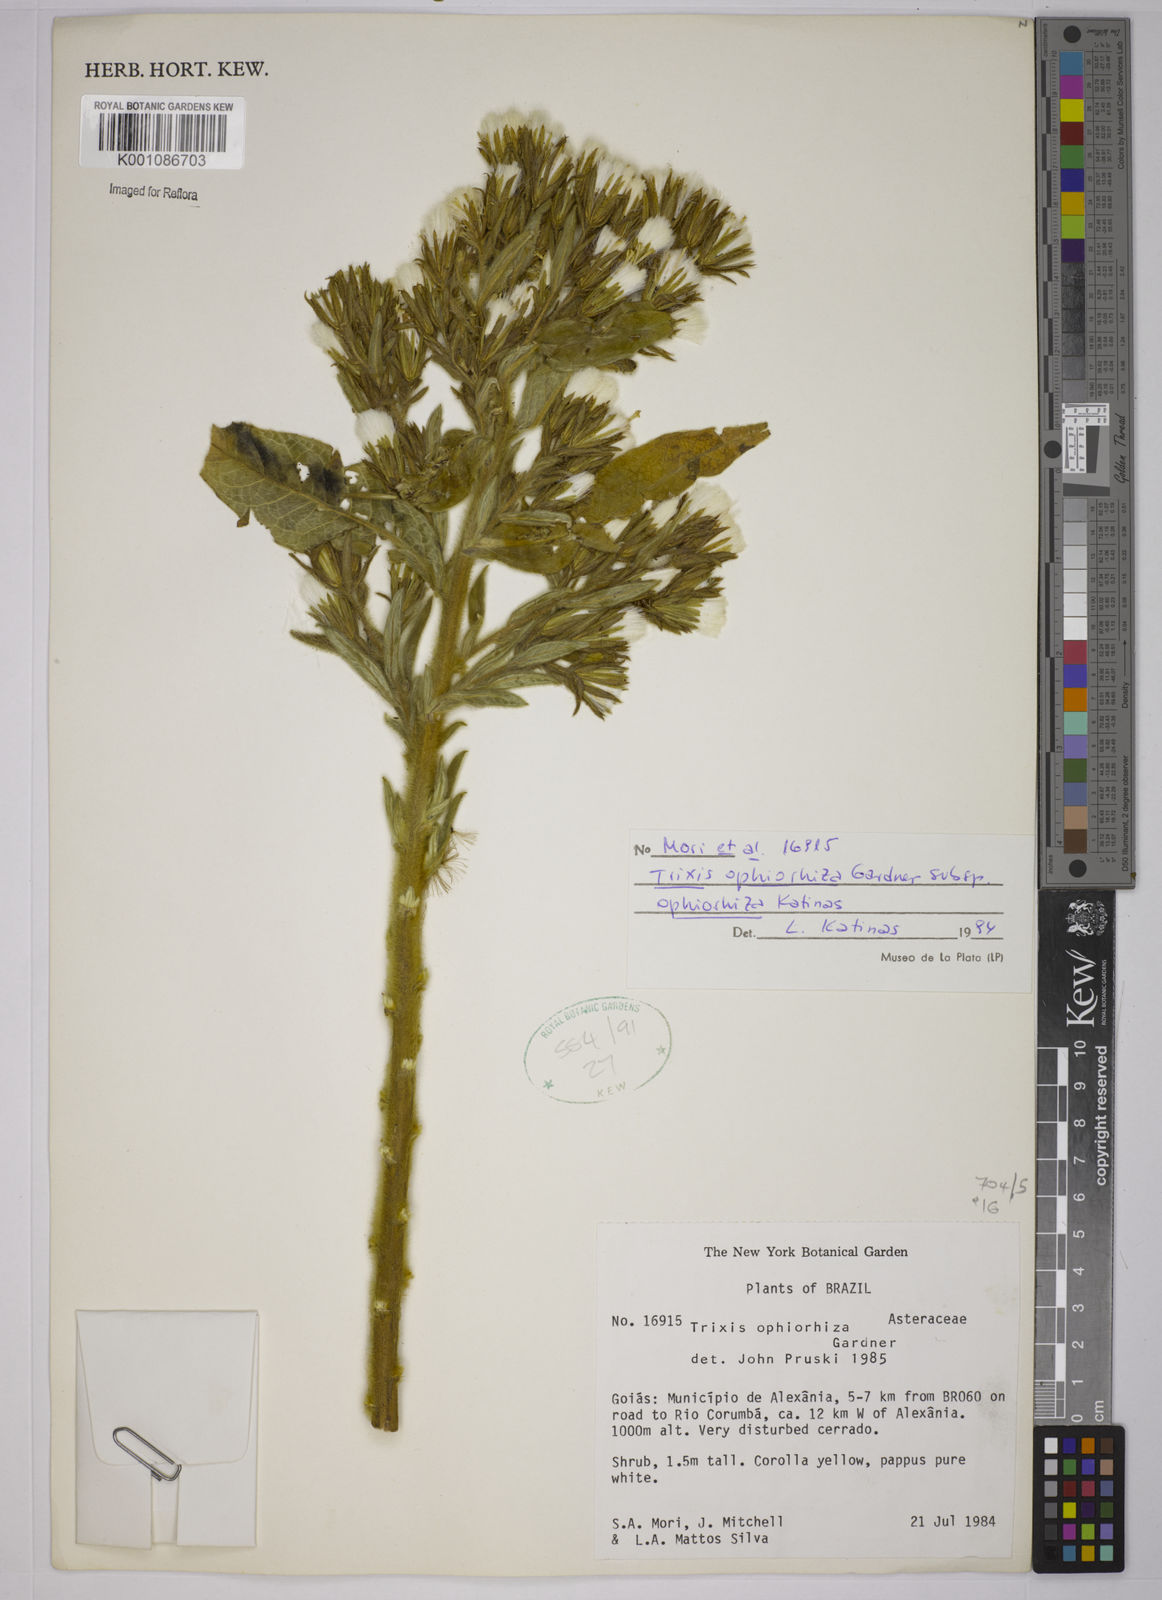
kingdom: Plantae
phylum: Tracheophyta
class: Magnoliopsida
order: Asterales
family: Asteraceae
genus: Trixis
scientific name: Trixis ophiorhiza
